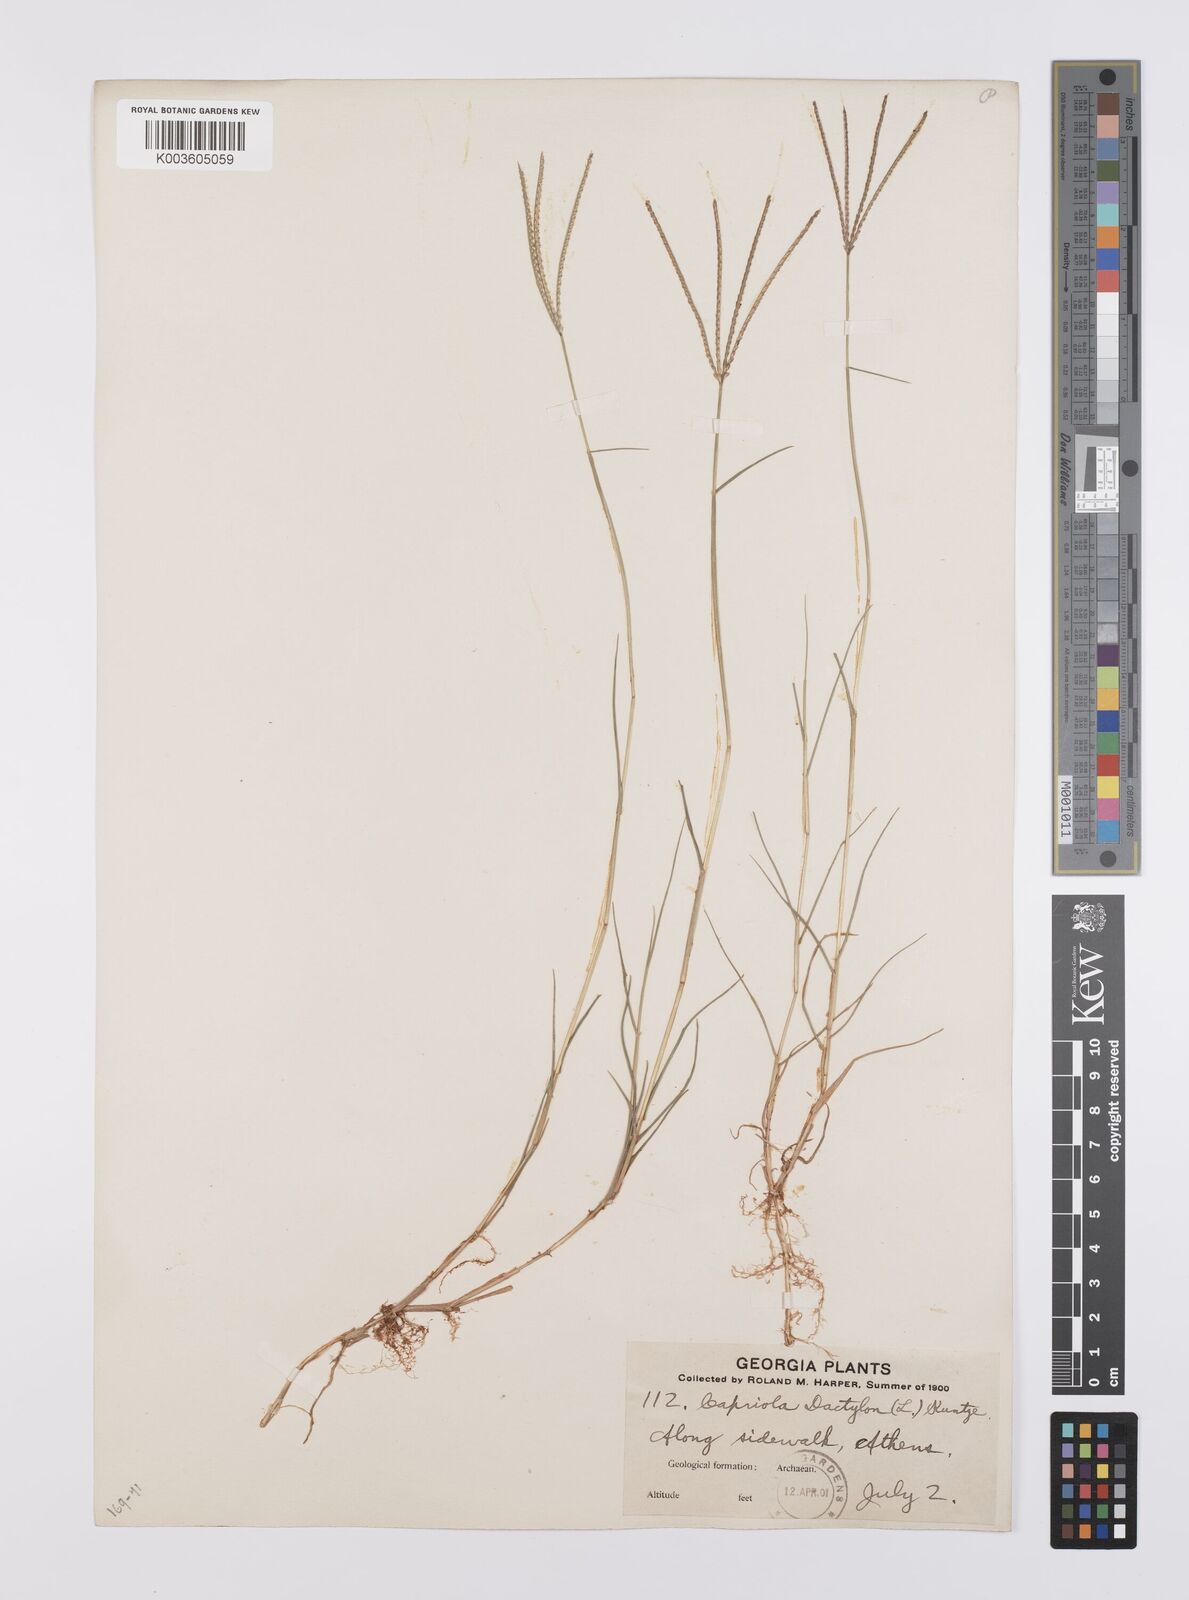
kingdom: Plantae
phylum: Tracheophyta
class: Liliopsida
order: Poales
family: Poaceae
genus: Cynodon
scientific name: Cynodon dactylon
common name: Bermuda grass
